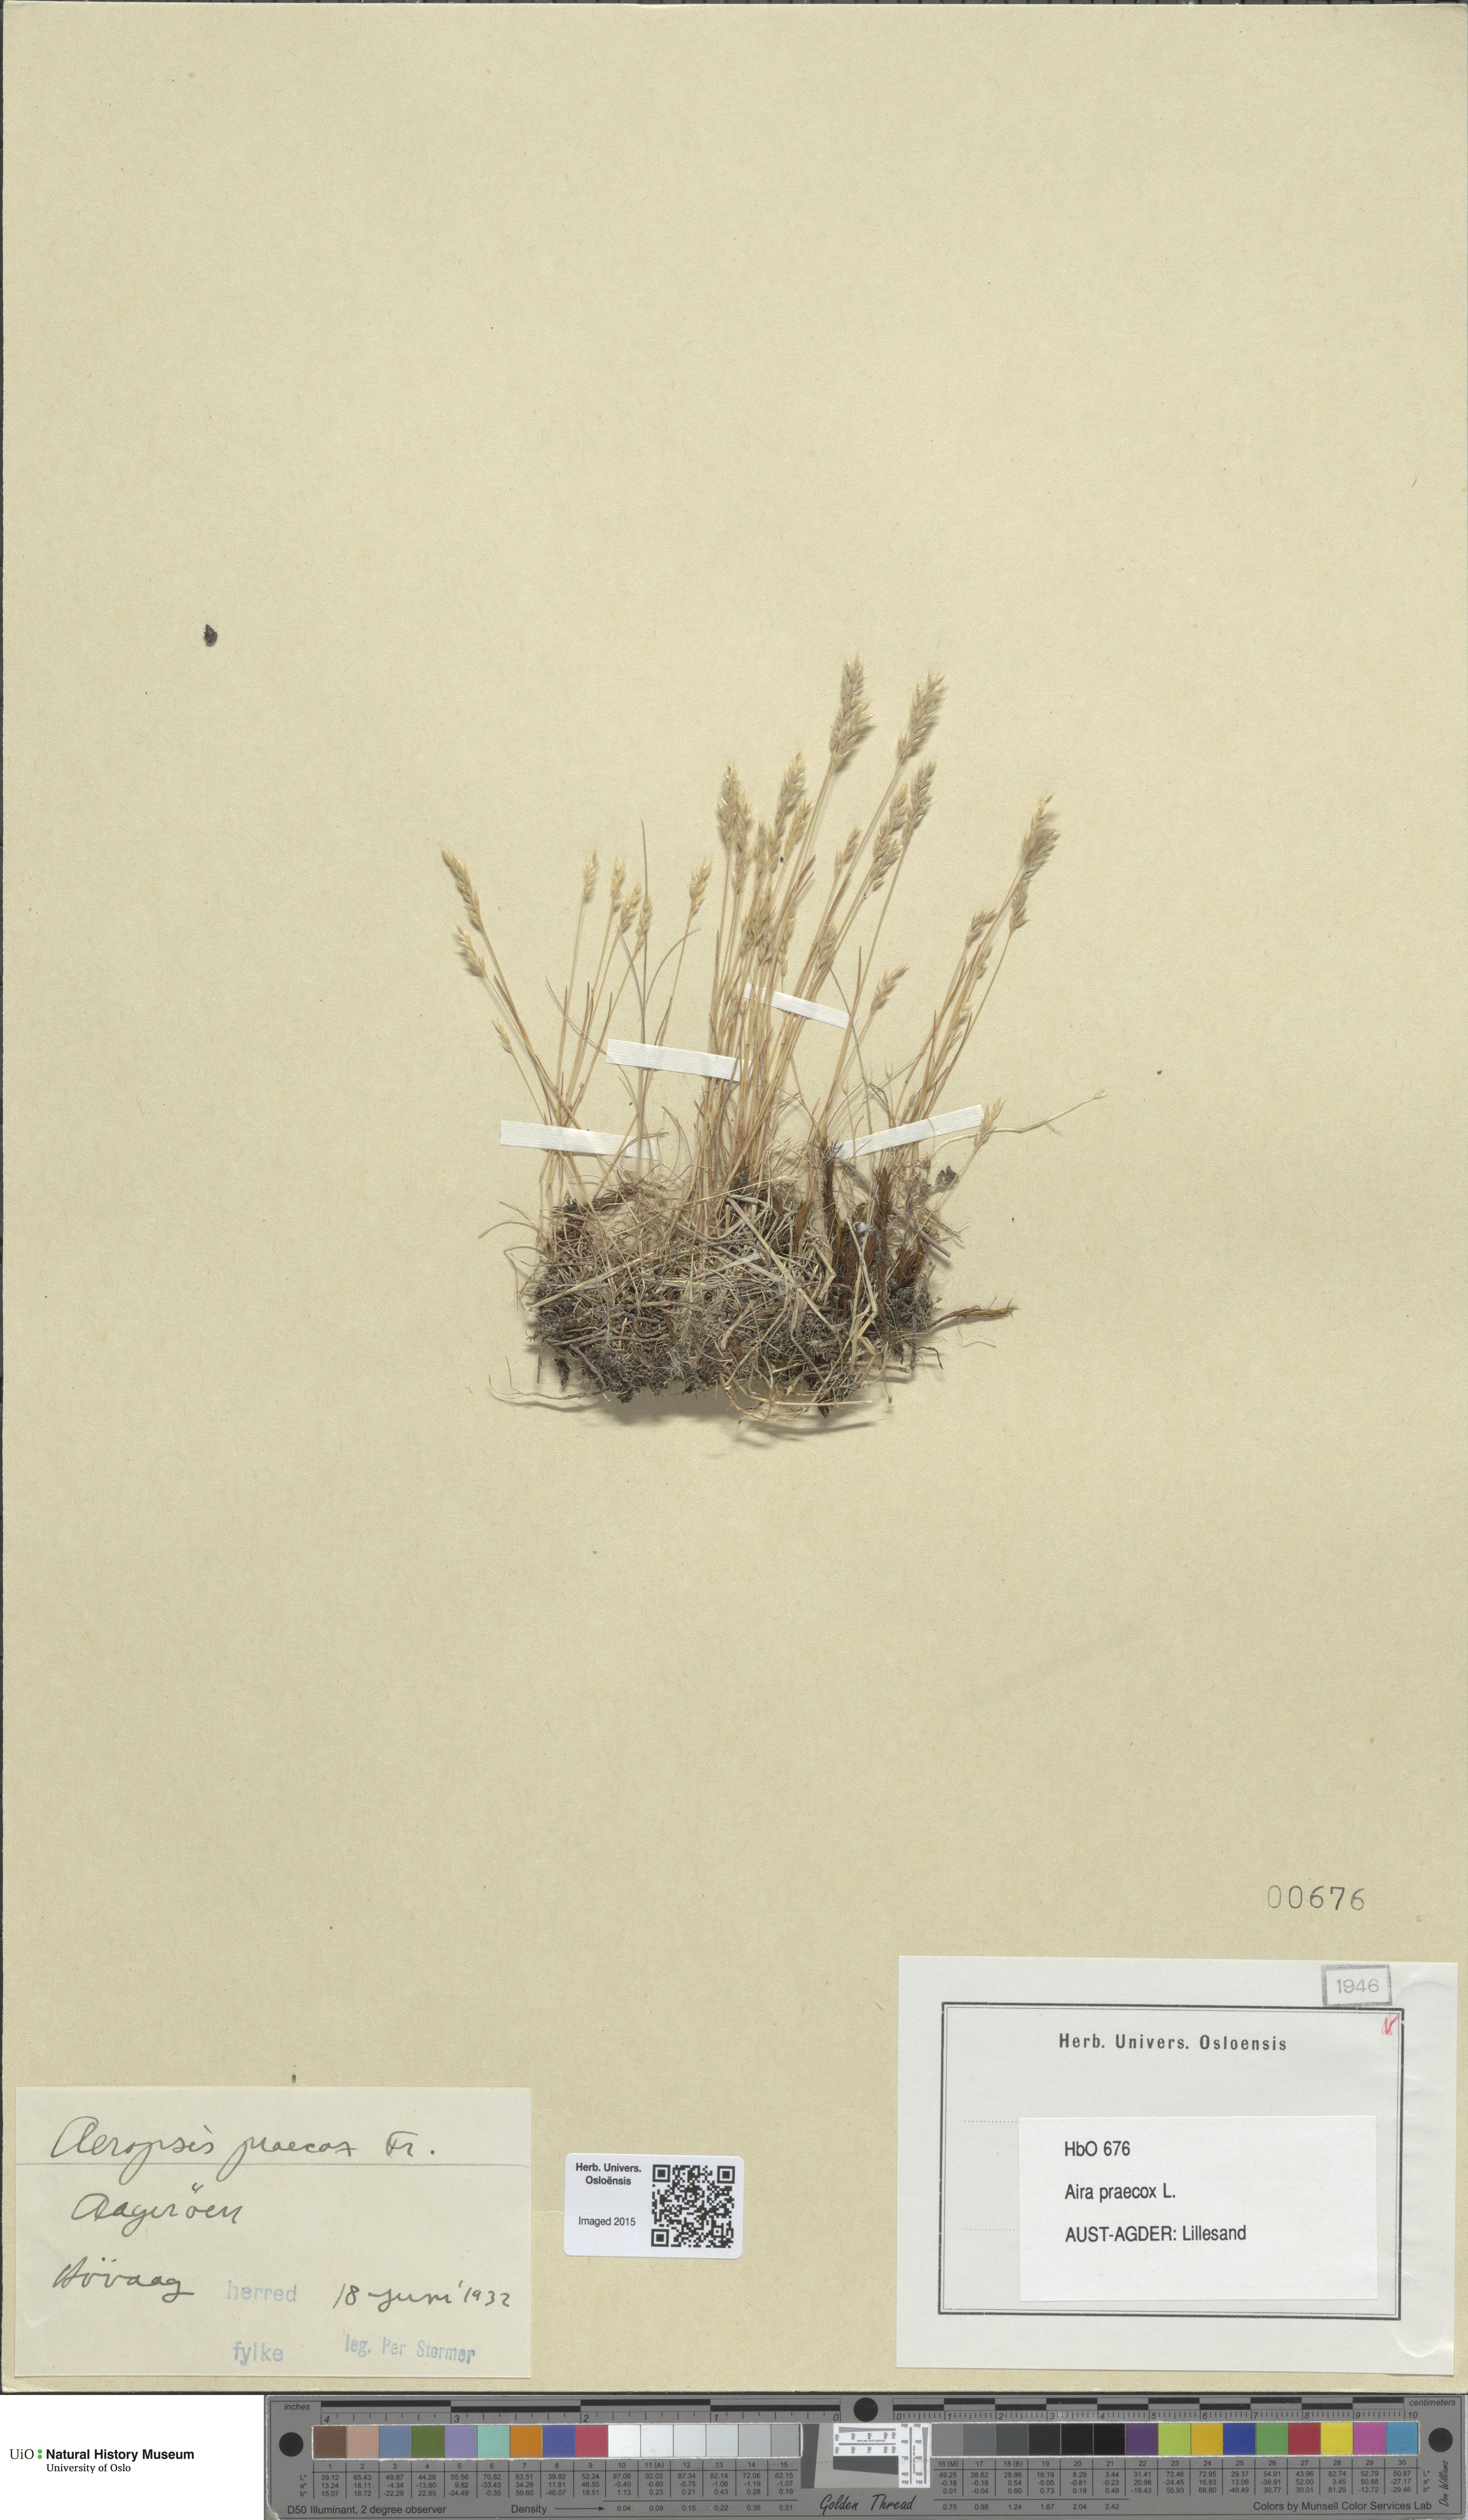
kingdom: Plantae
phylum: Tracheophyta
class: Liliopsida
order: Poales
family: Poaceae
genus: Aira
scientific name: Aira praecox
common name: Early hair-grass
